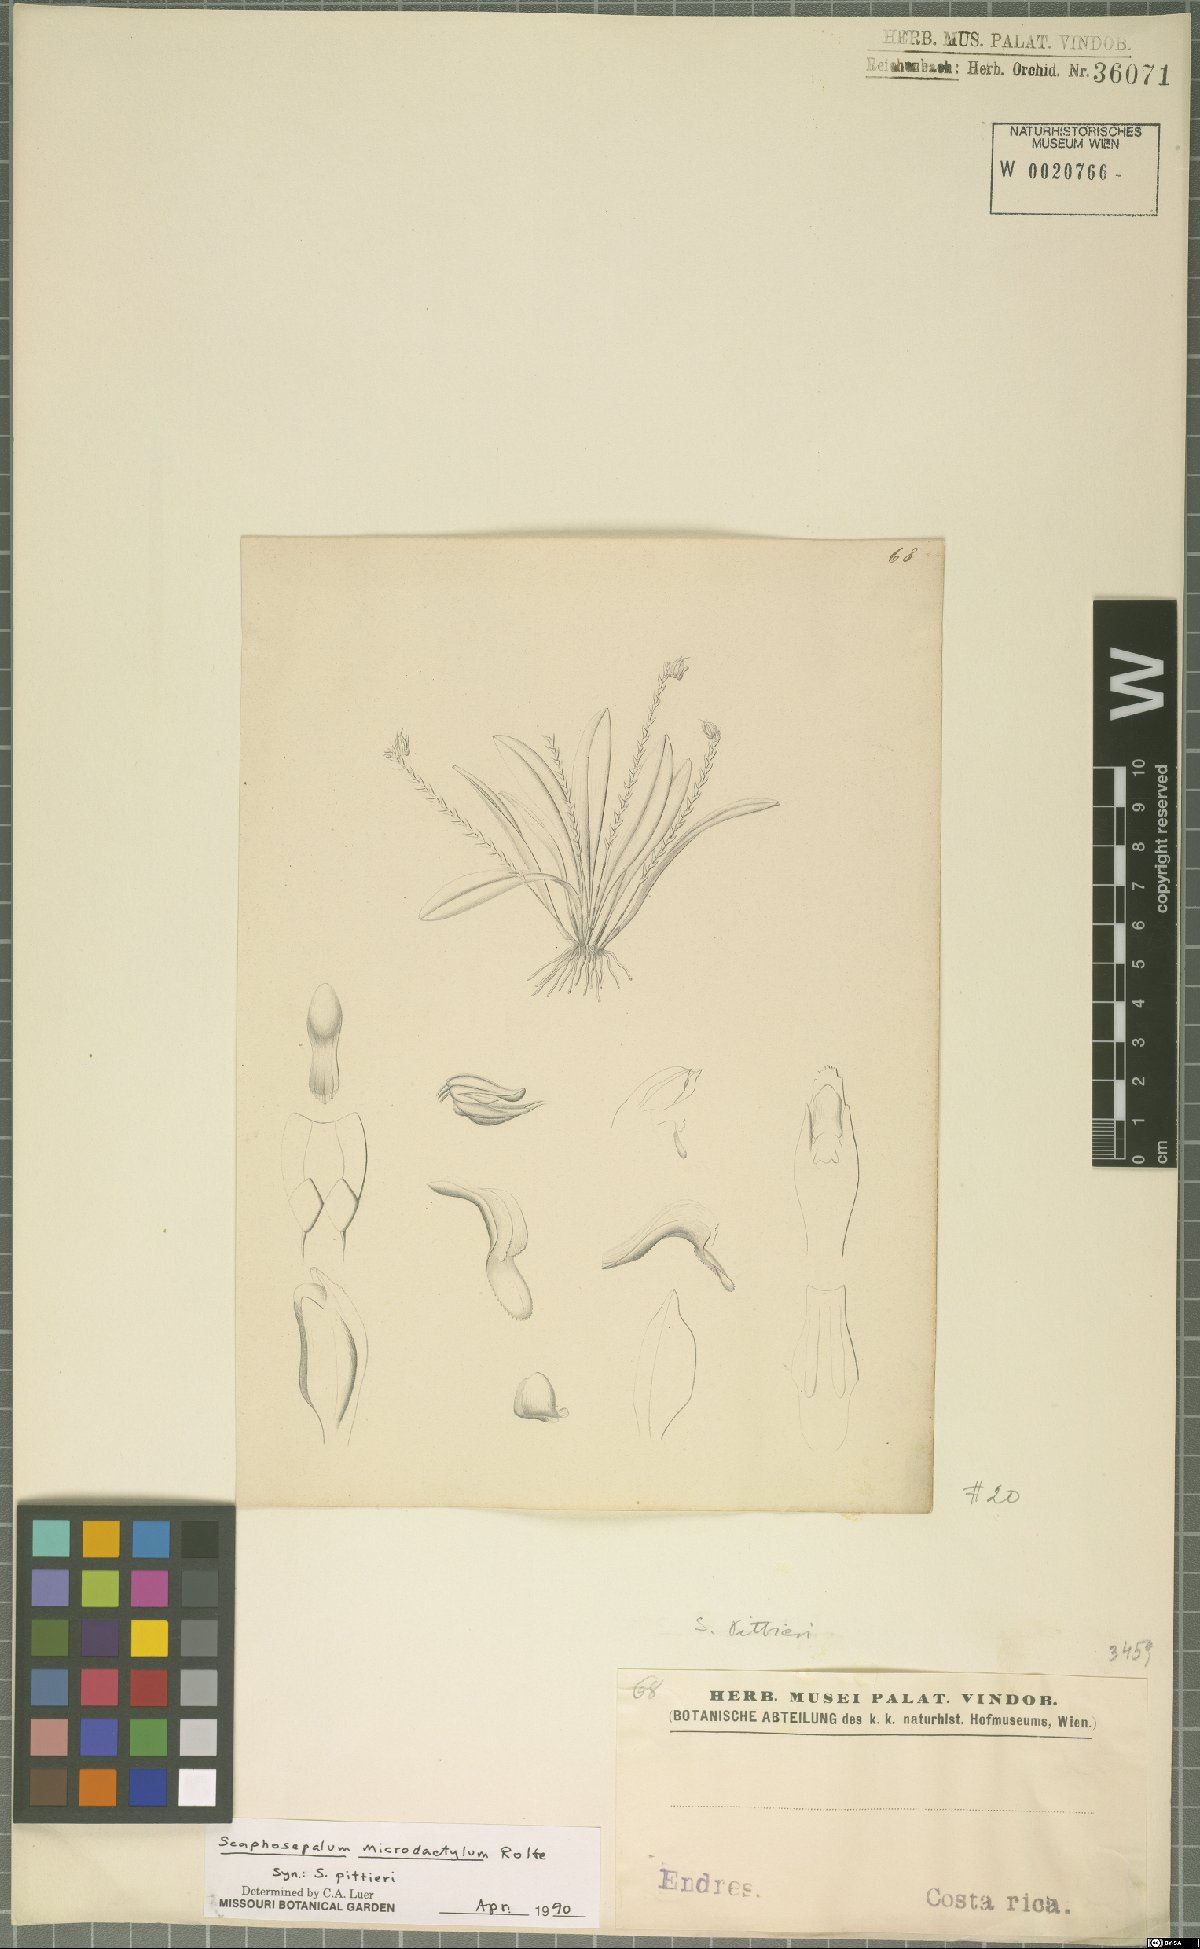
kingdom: Plantae
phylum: Tracheophyta
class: Liliopsida
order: Asparagales
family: Orchidaceae
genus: Scaphosepalum
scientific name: Scaphosepalum microdactylum
